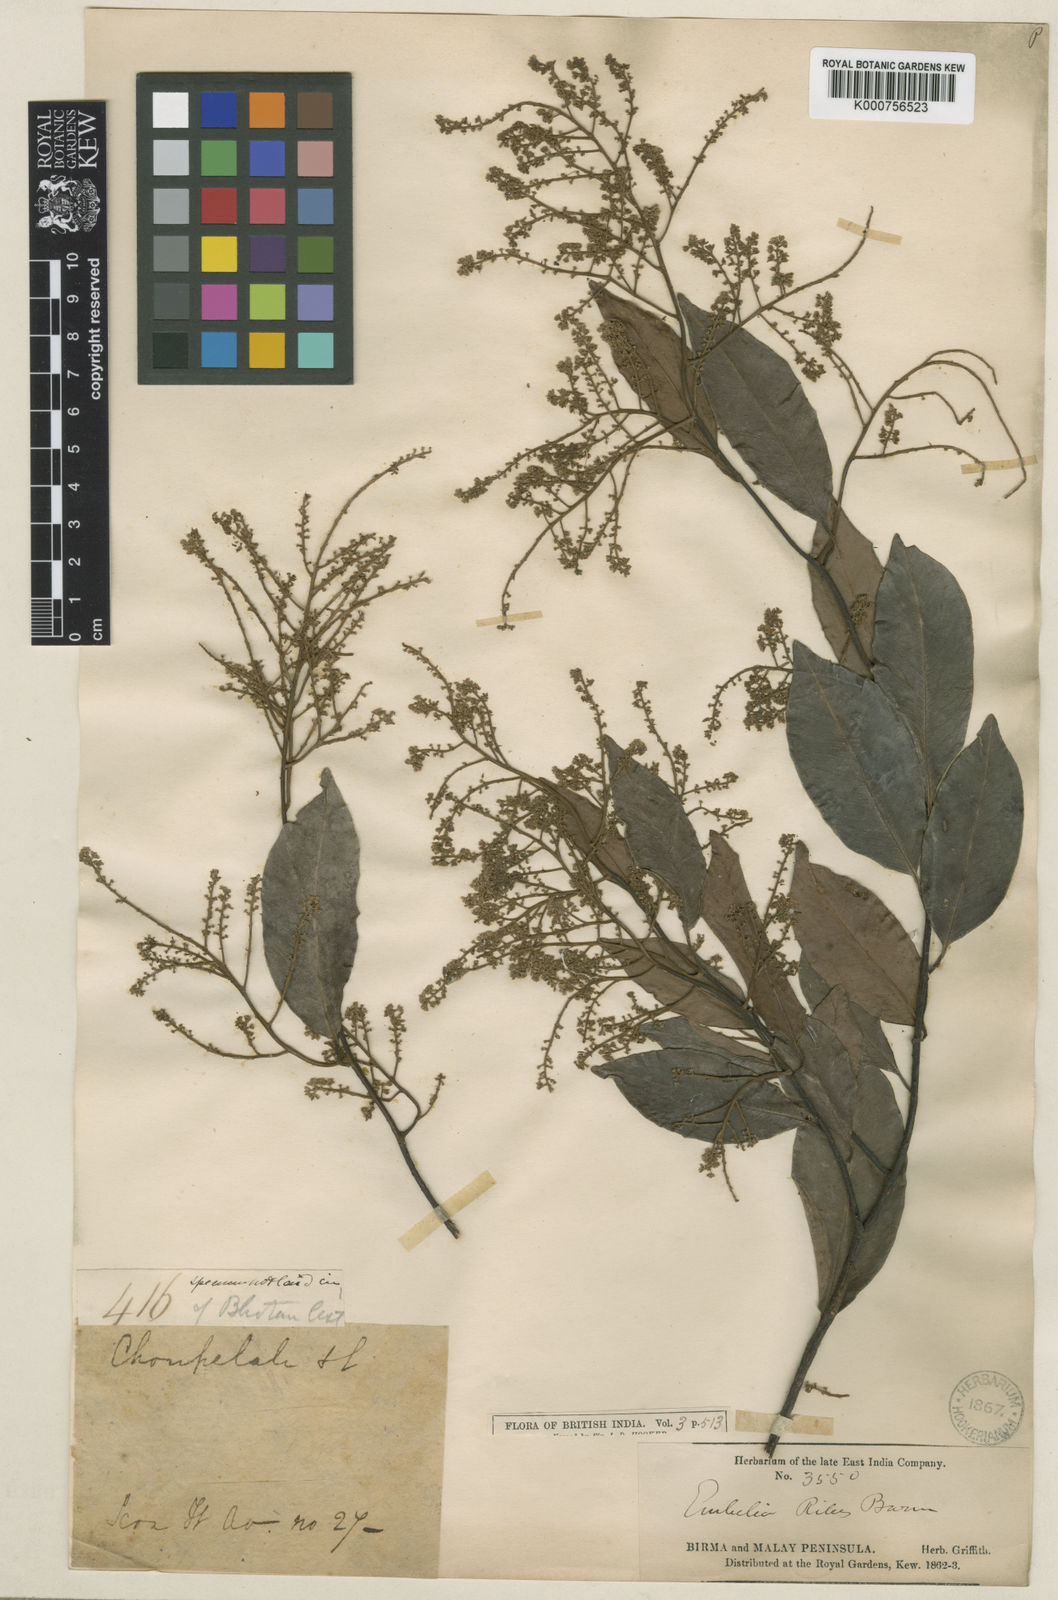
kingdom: Plantae
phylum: Tracheophyta
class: Magnoliopsida
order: Ericales
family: Primulaceae
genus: Embelia
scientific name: Embelia canescens
